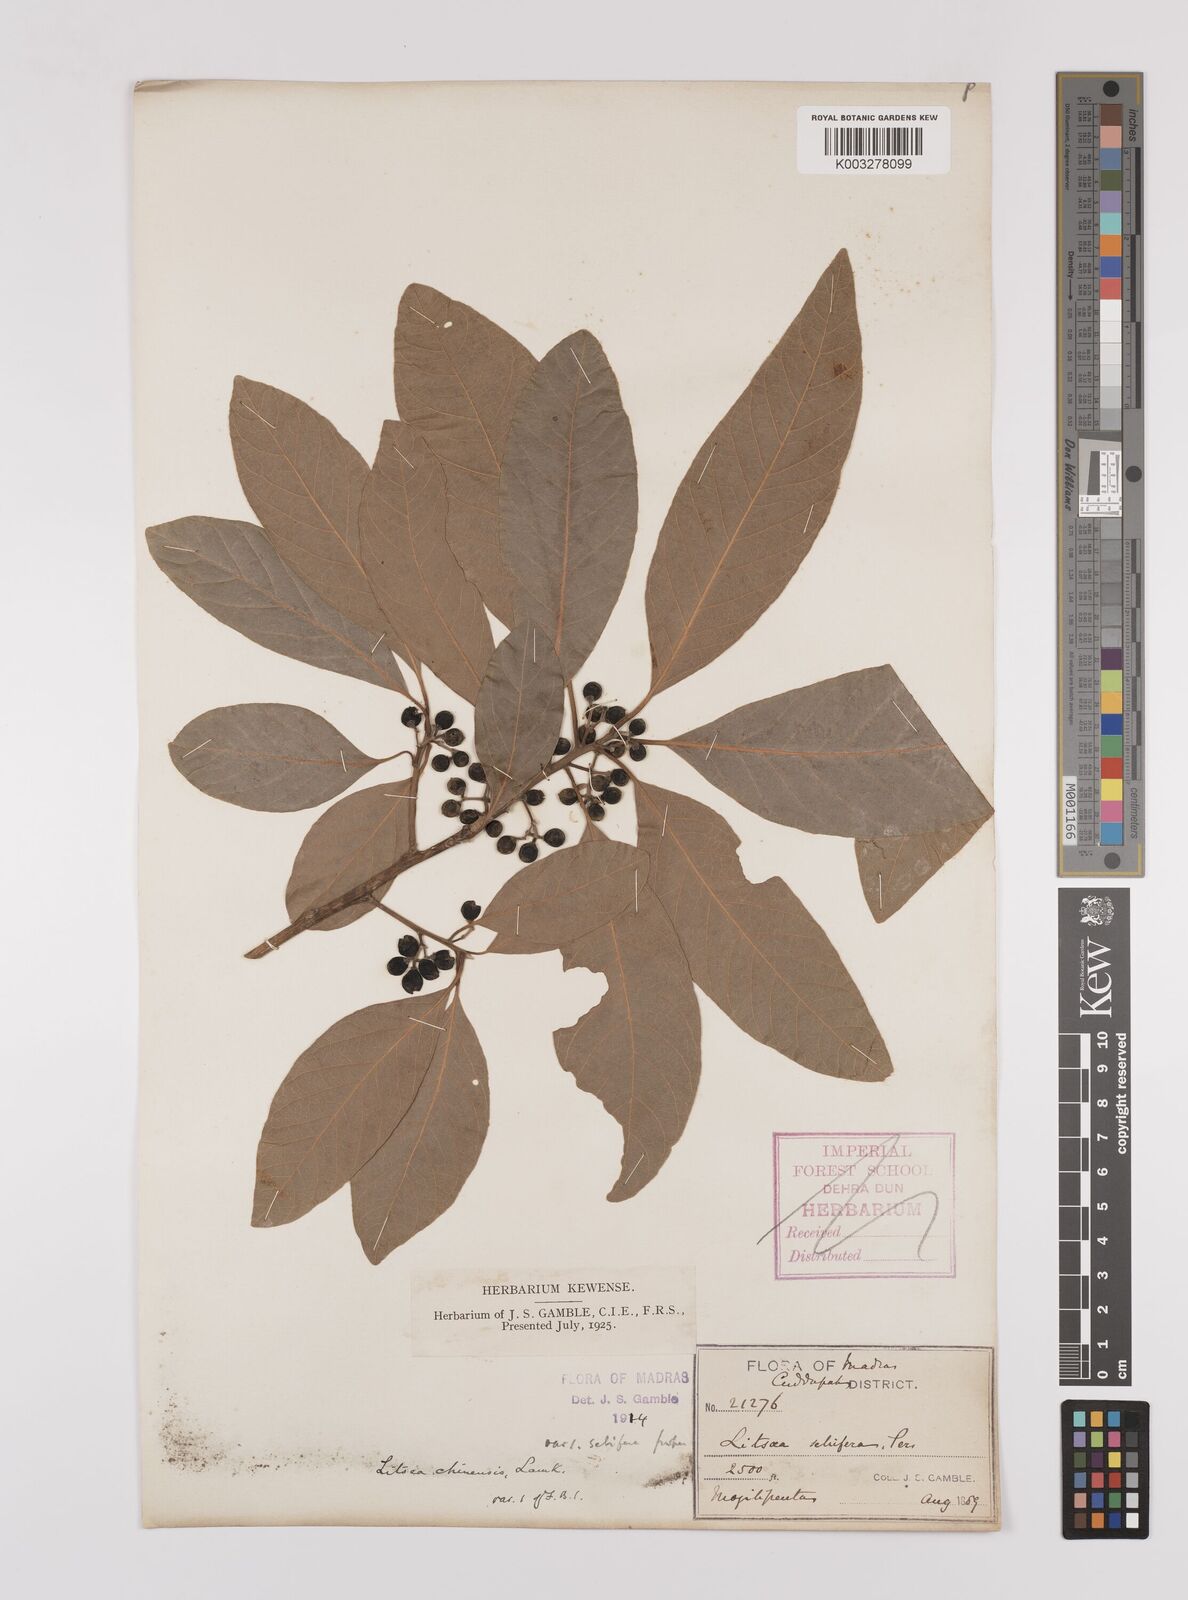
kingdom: Plantae
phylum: Tracheophyta
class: Magnoliopsida
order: Laurales
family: Lauraceae
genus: Litsea
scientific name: Litsea
